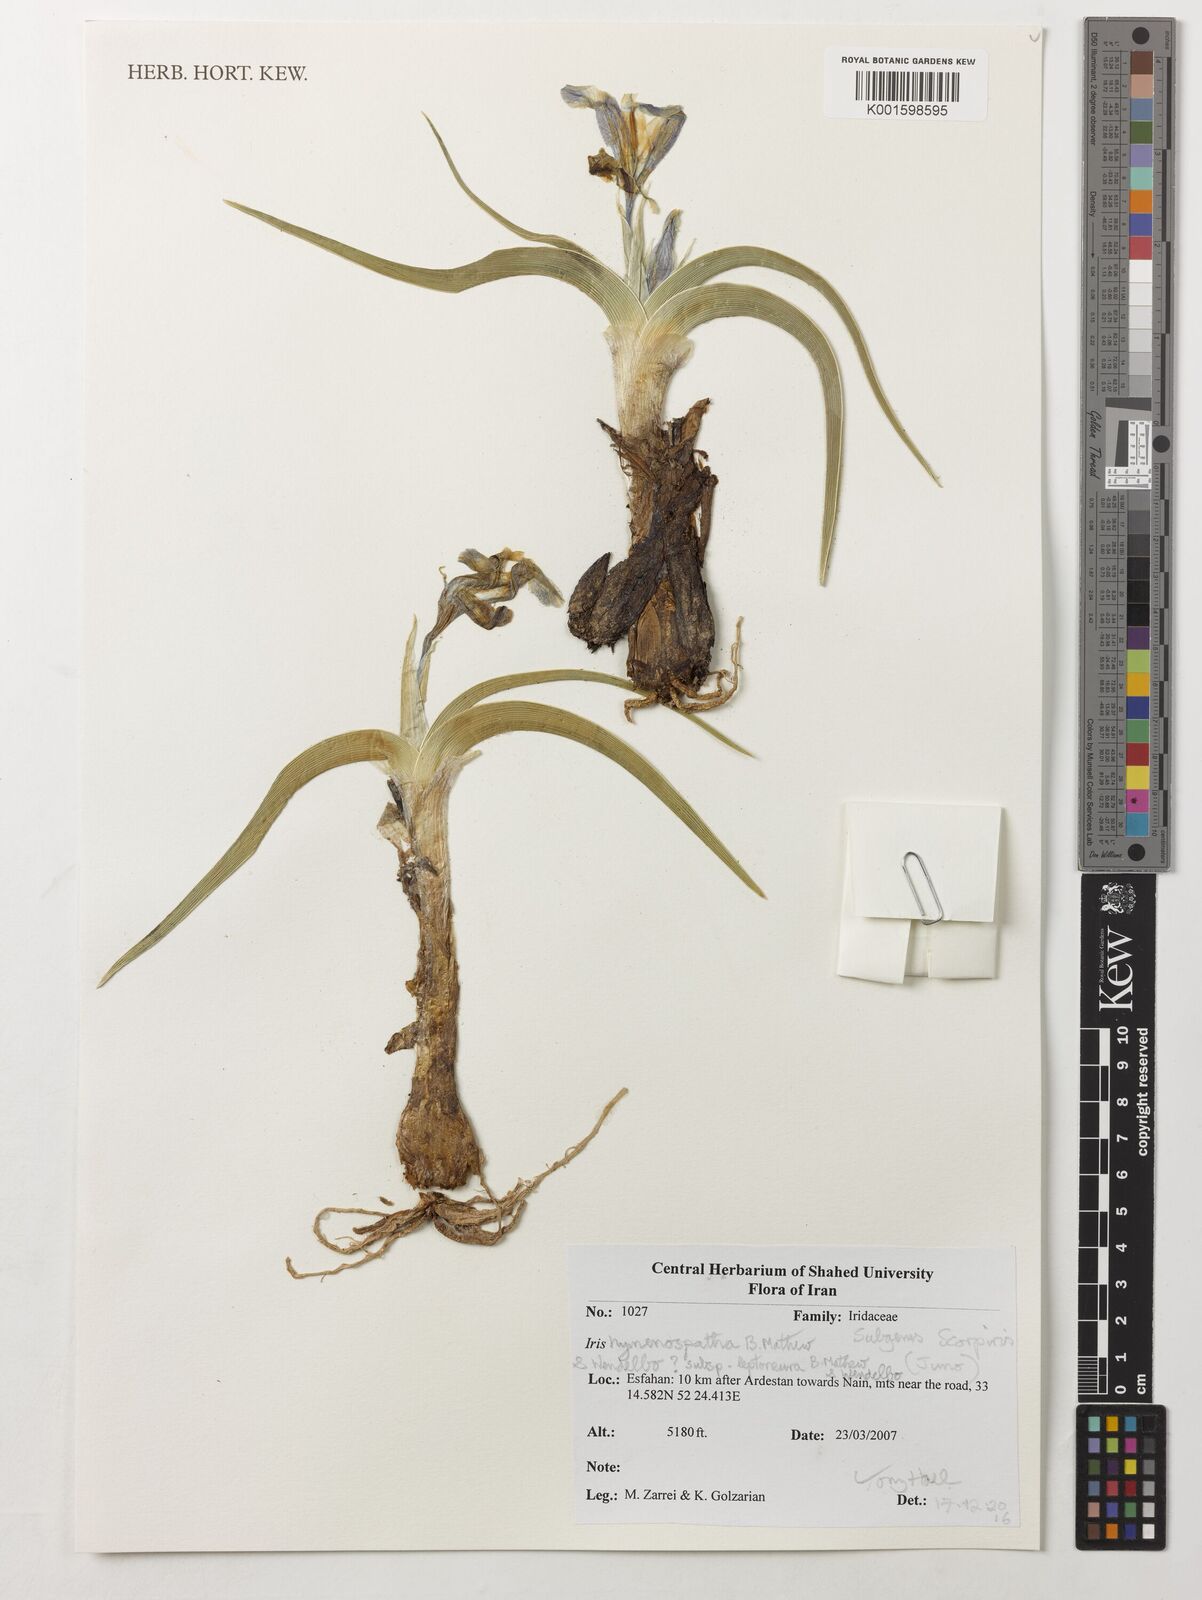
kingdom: Plantae
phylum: Tracheophyta
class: Liliopsida
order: Asparagales
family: Iridaceae
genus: Iris
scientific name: Iris hymenospatha
